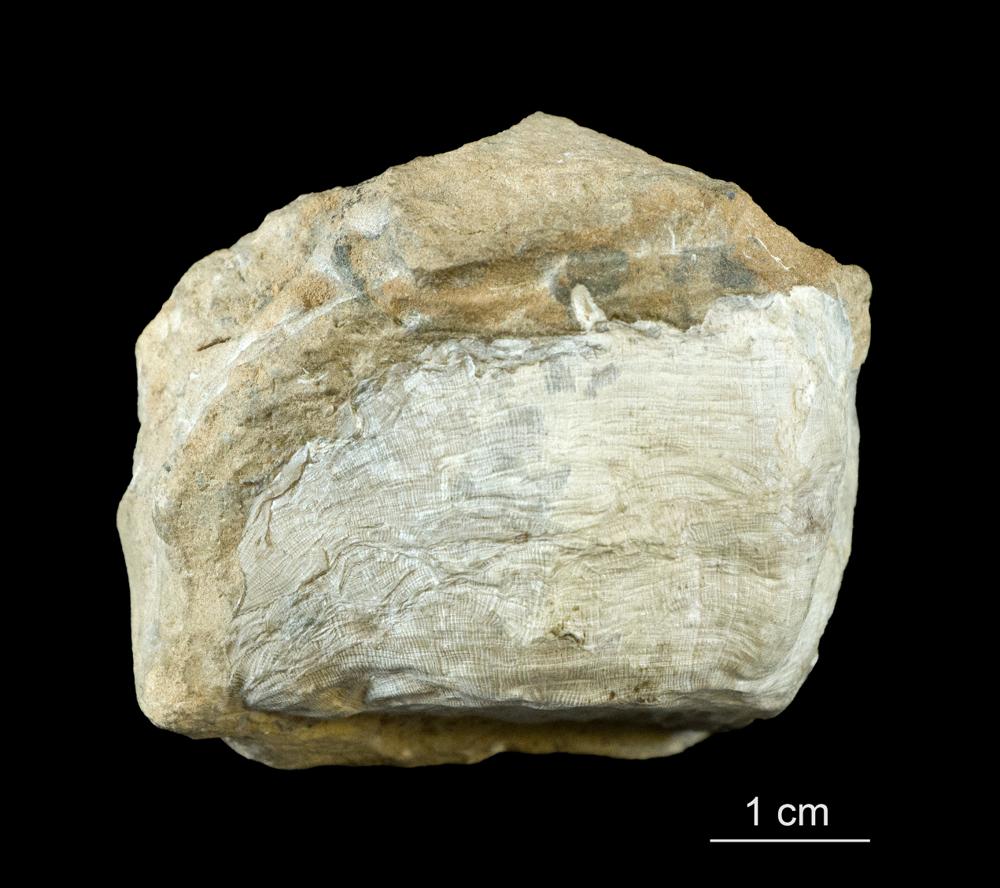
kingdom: Animalia
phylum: Brachiopoda
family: Rafinesquinidae
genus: Kiaeromena
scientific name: Kiaeromena Leptaena estonensis
